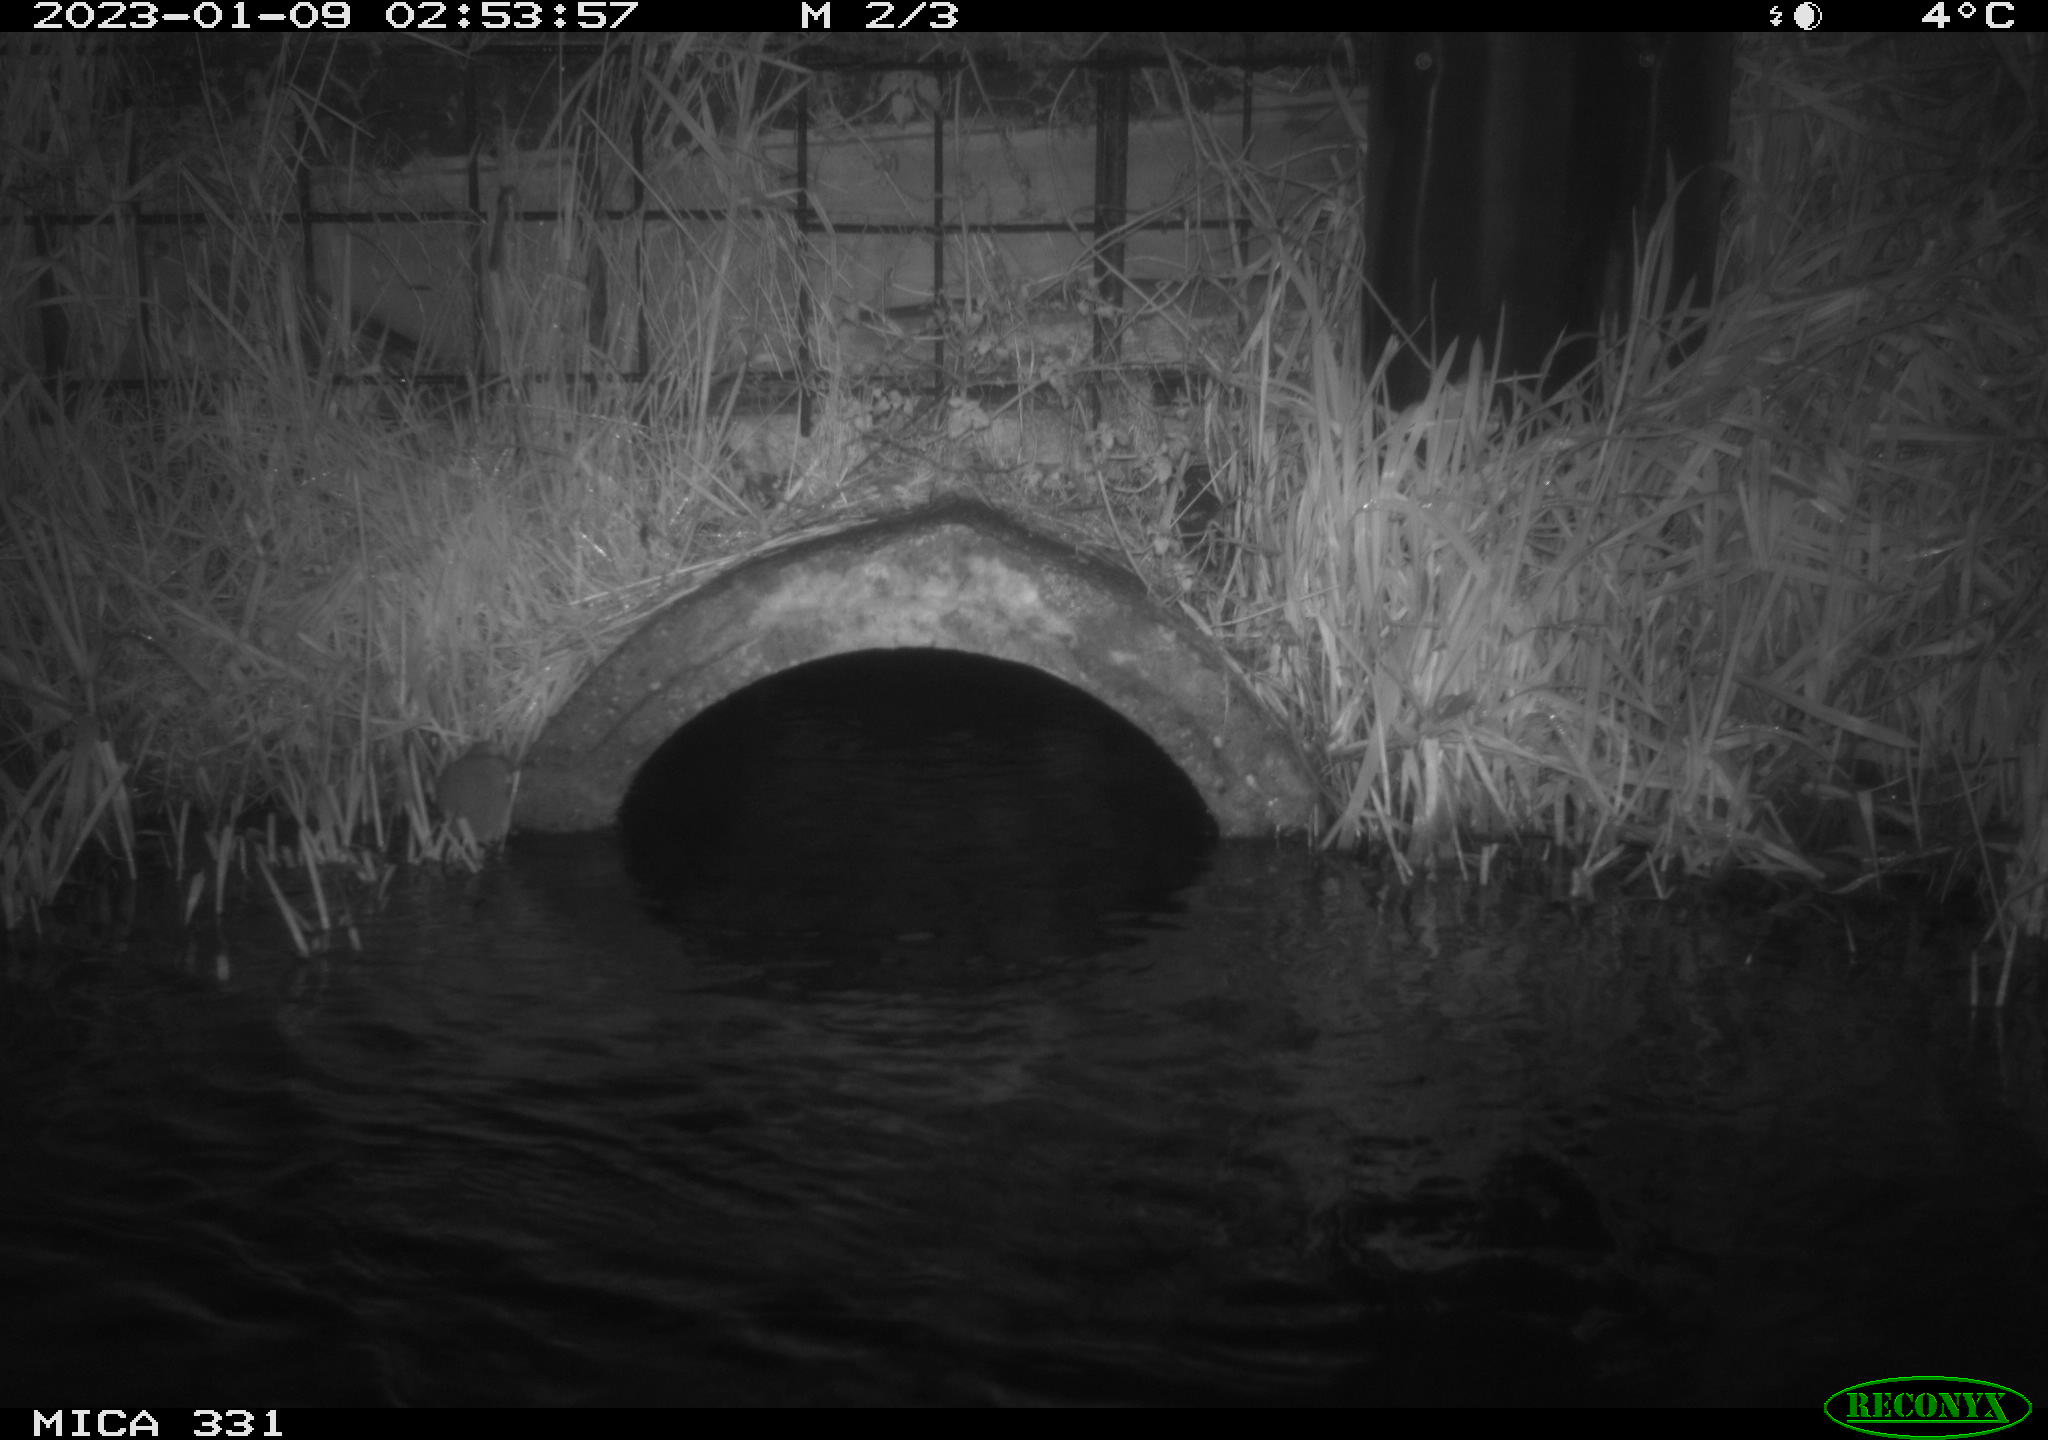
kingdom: Animalia
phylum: Chordata
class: Mammalia
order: Rodentia
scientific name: Rodentia
